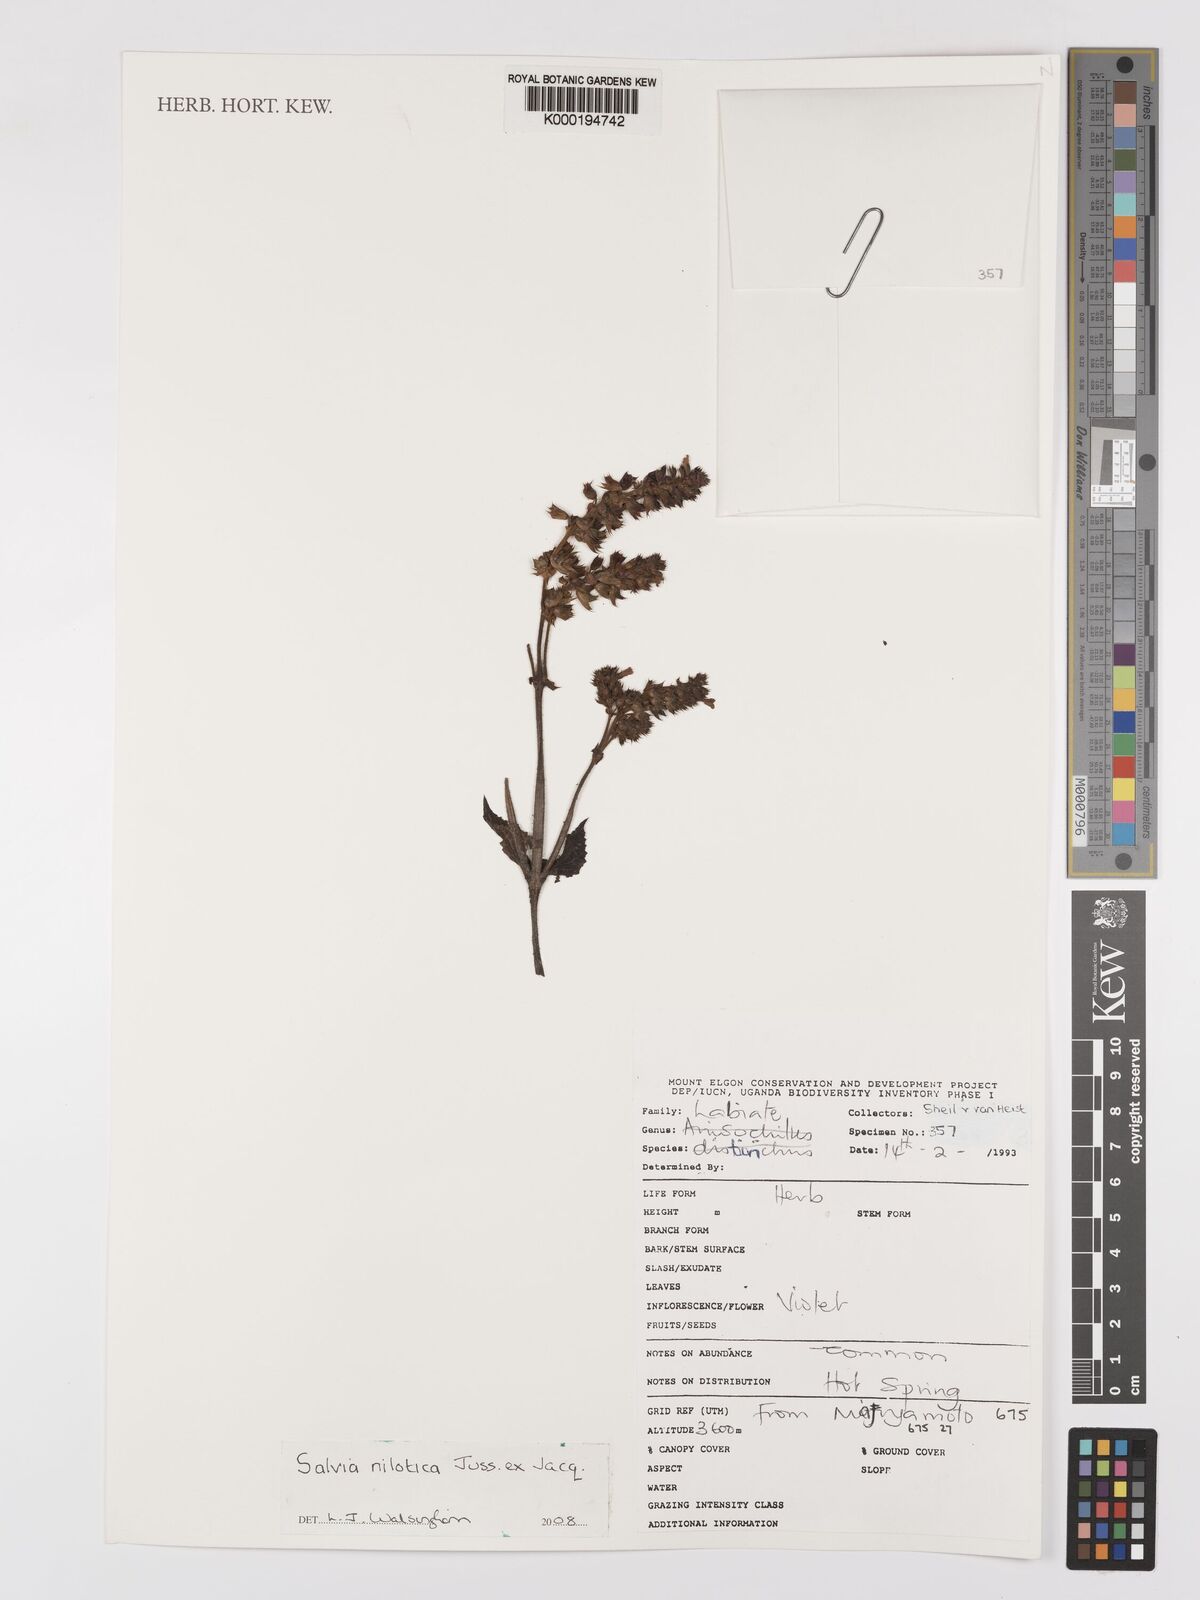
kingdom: Plantae
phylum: Tracheophyta
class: Magnoliopsida
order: Lamiales
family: Lamiaceae
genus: Salvia
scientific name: Salvia nilotica
